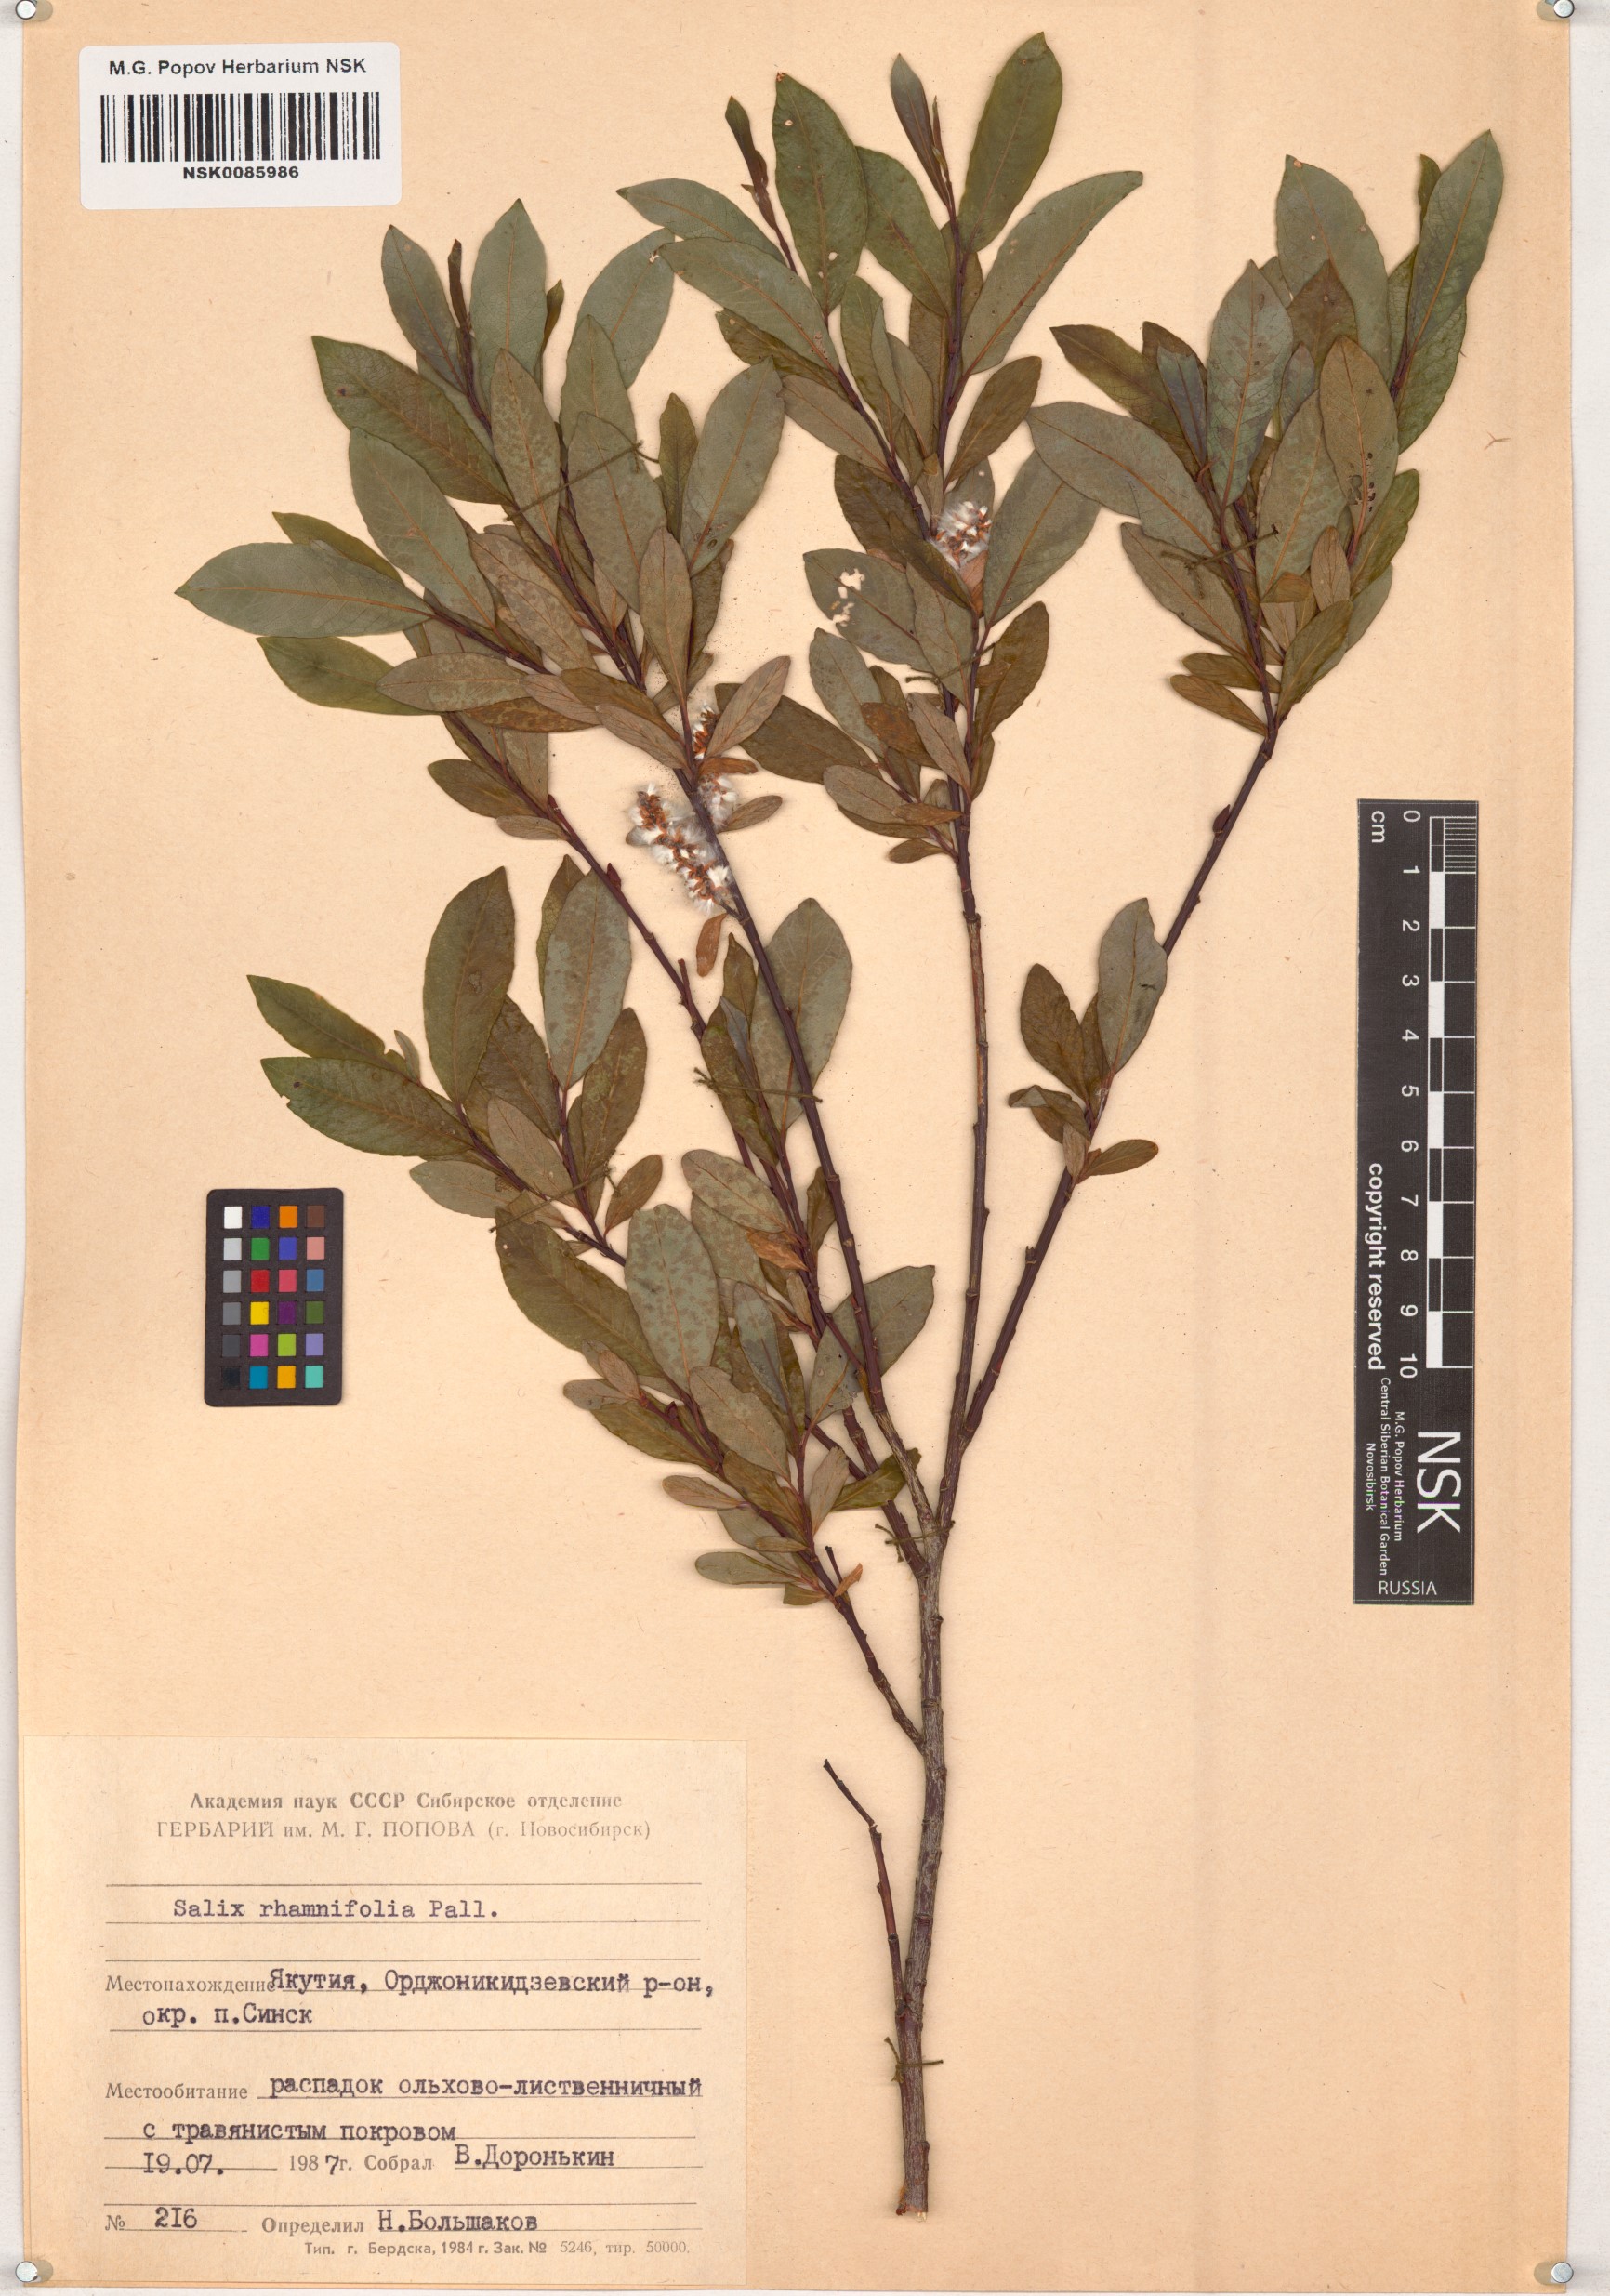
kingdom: Plantae
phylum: Tracheophyta
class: Magnoliopsida
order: Malpighiales
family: Salicaceae
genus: Salix
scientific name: Salix rhamnifolia
